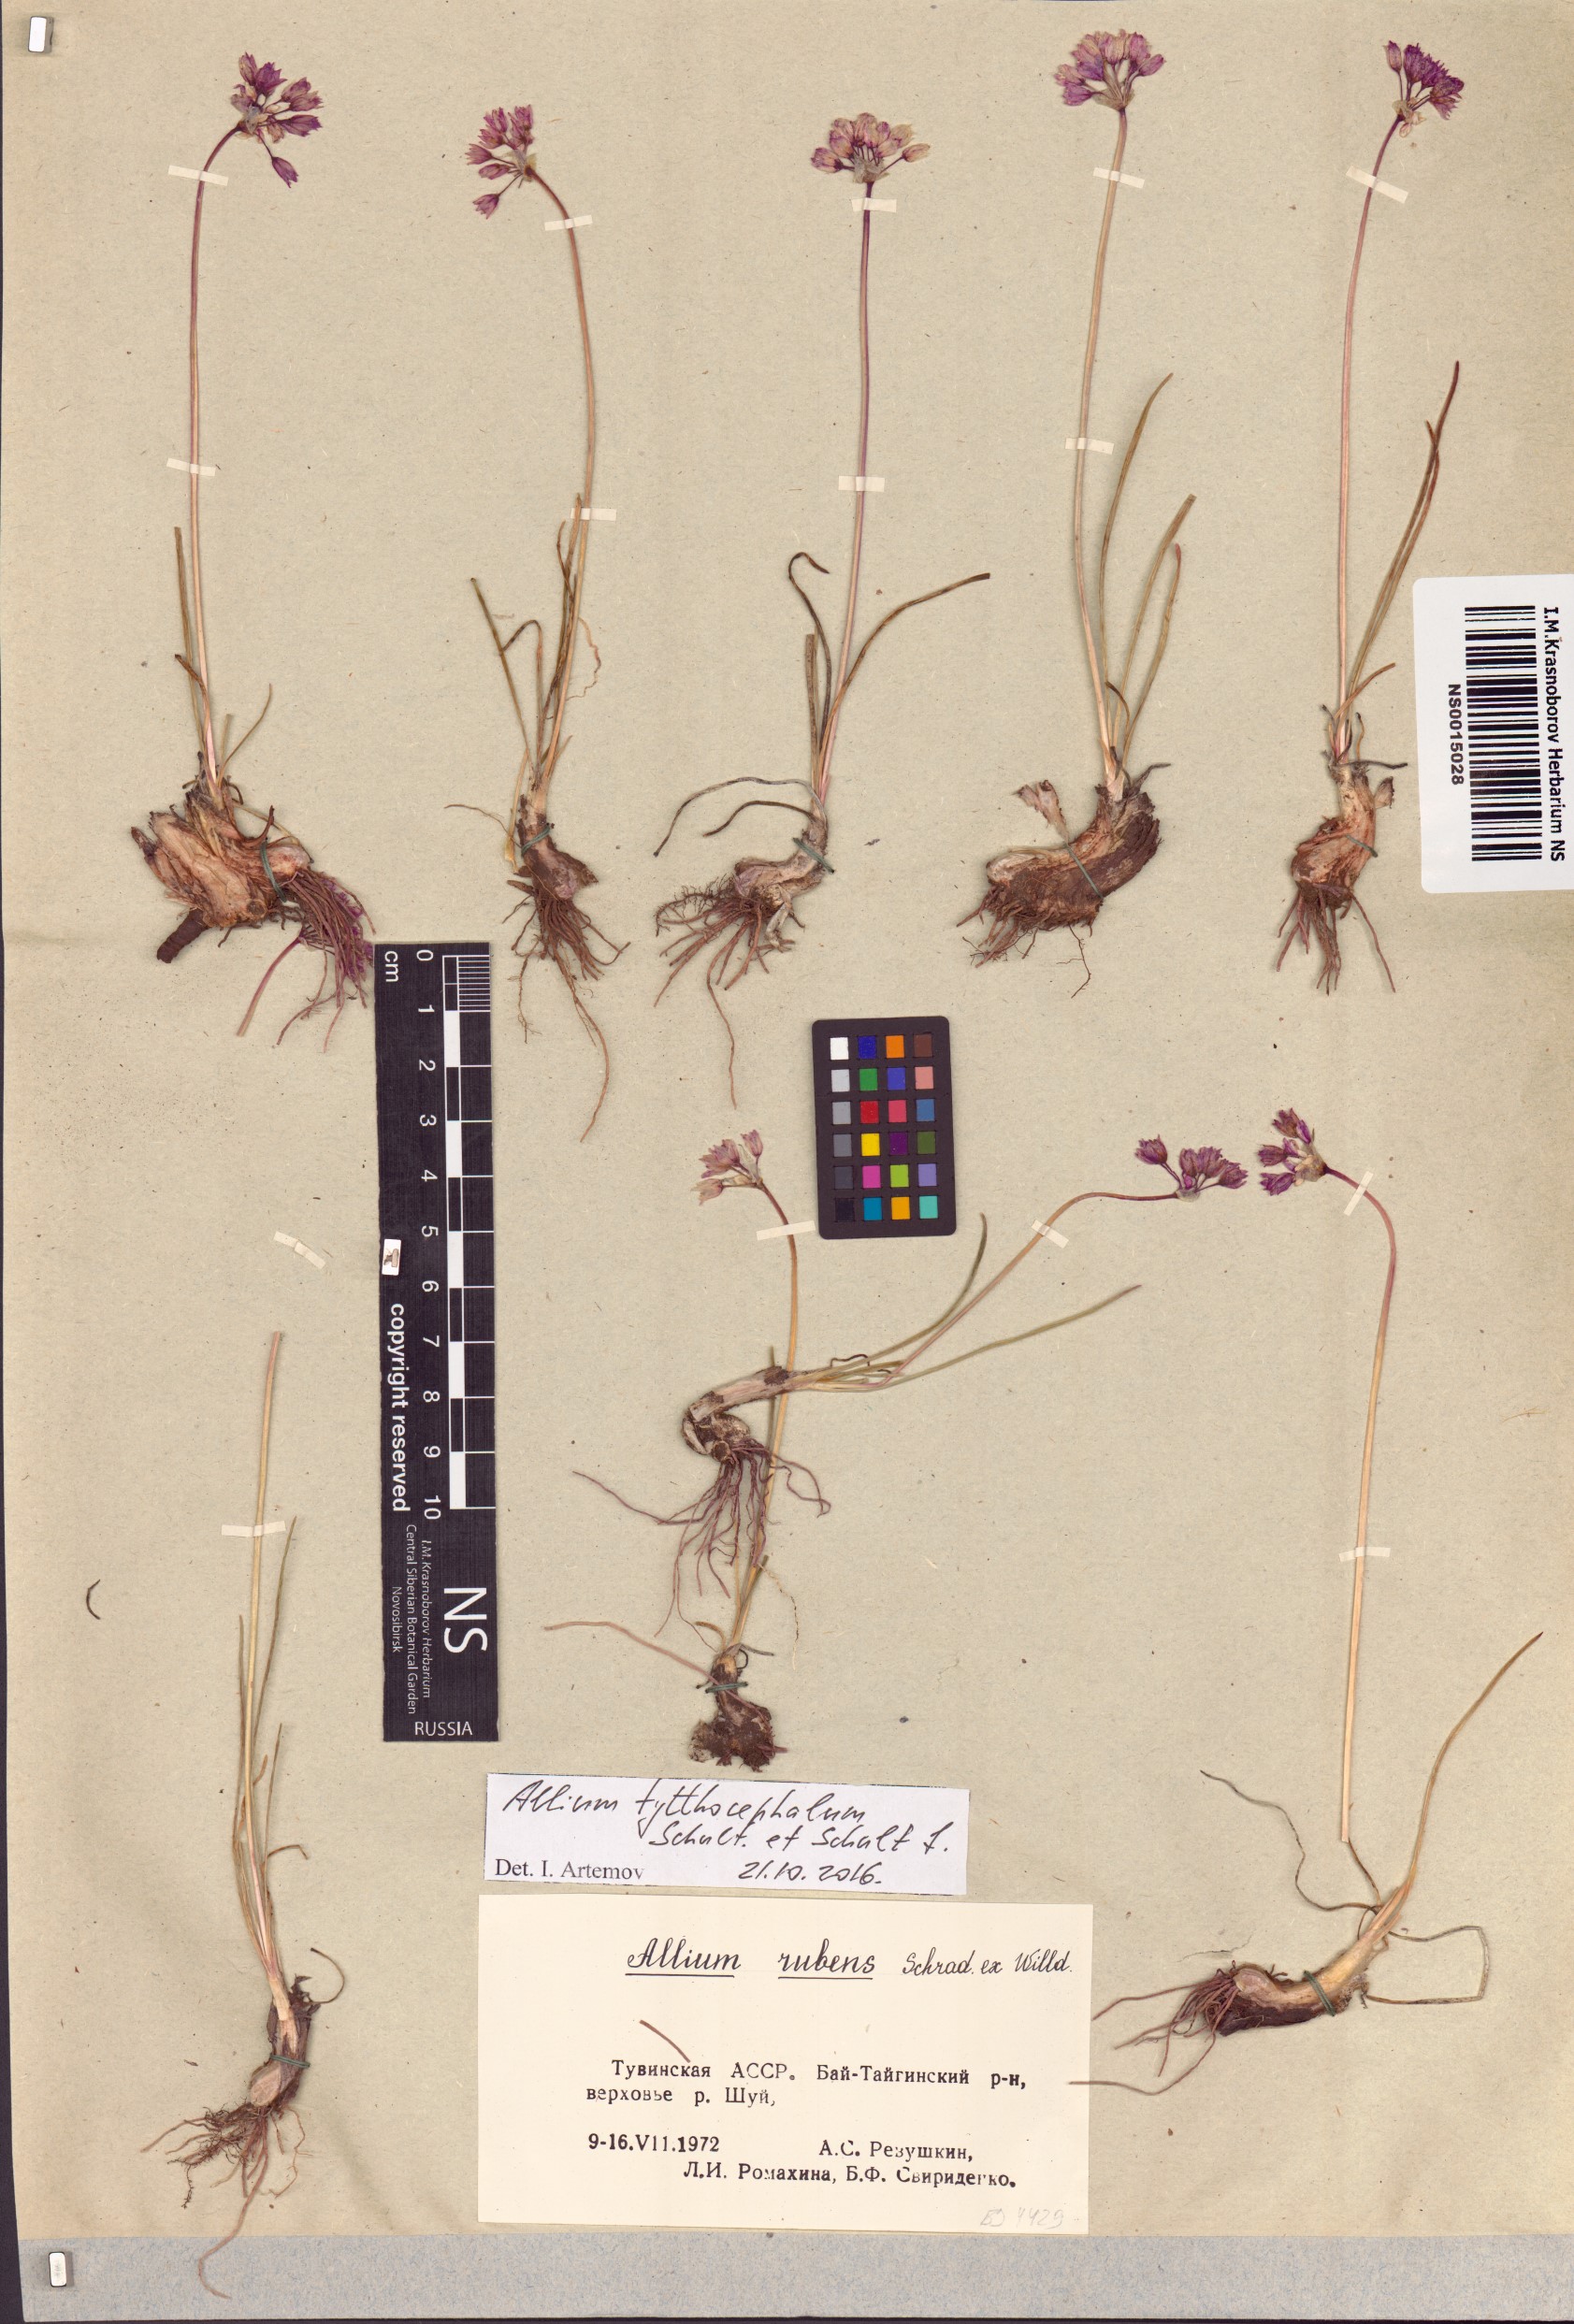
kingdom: Plantae
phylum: Tracheophyta
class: Liliopsida
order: Asparagales
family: Amaryllidaceae
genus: Allium
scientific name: Allium tytthocephalum
